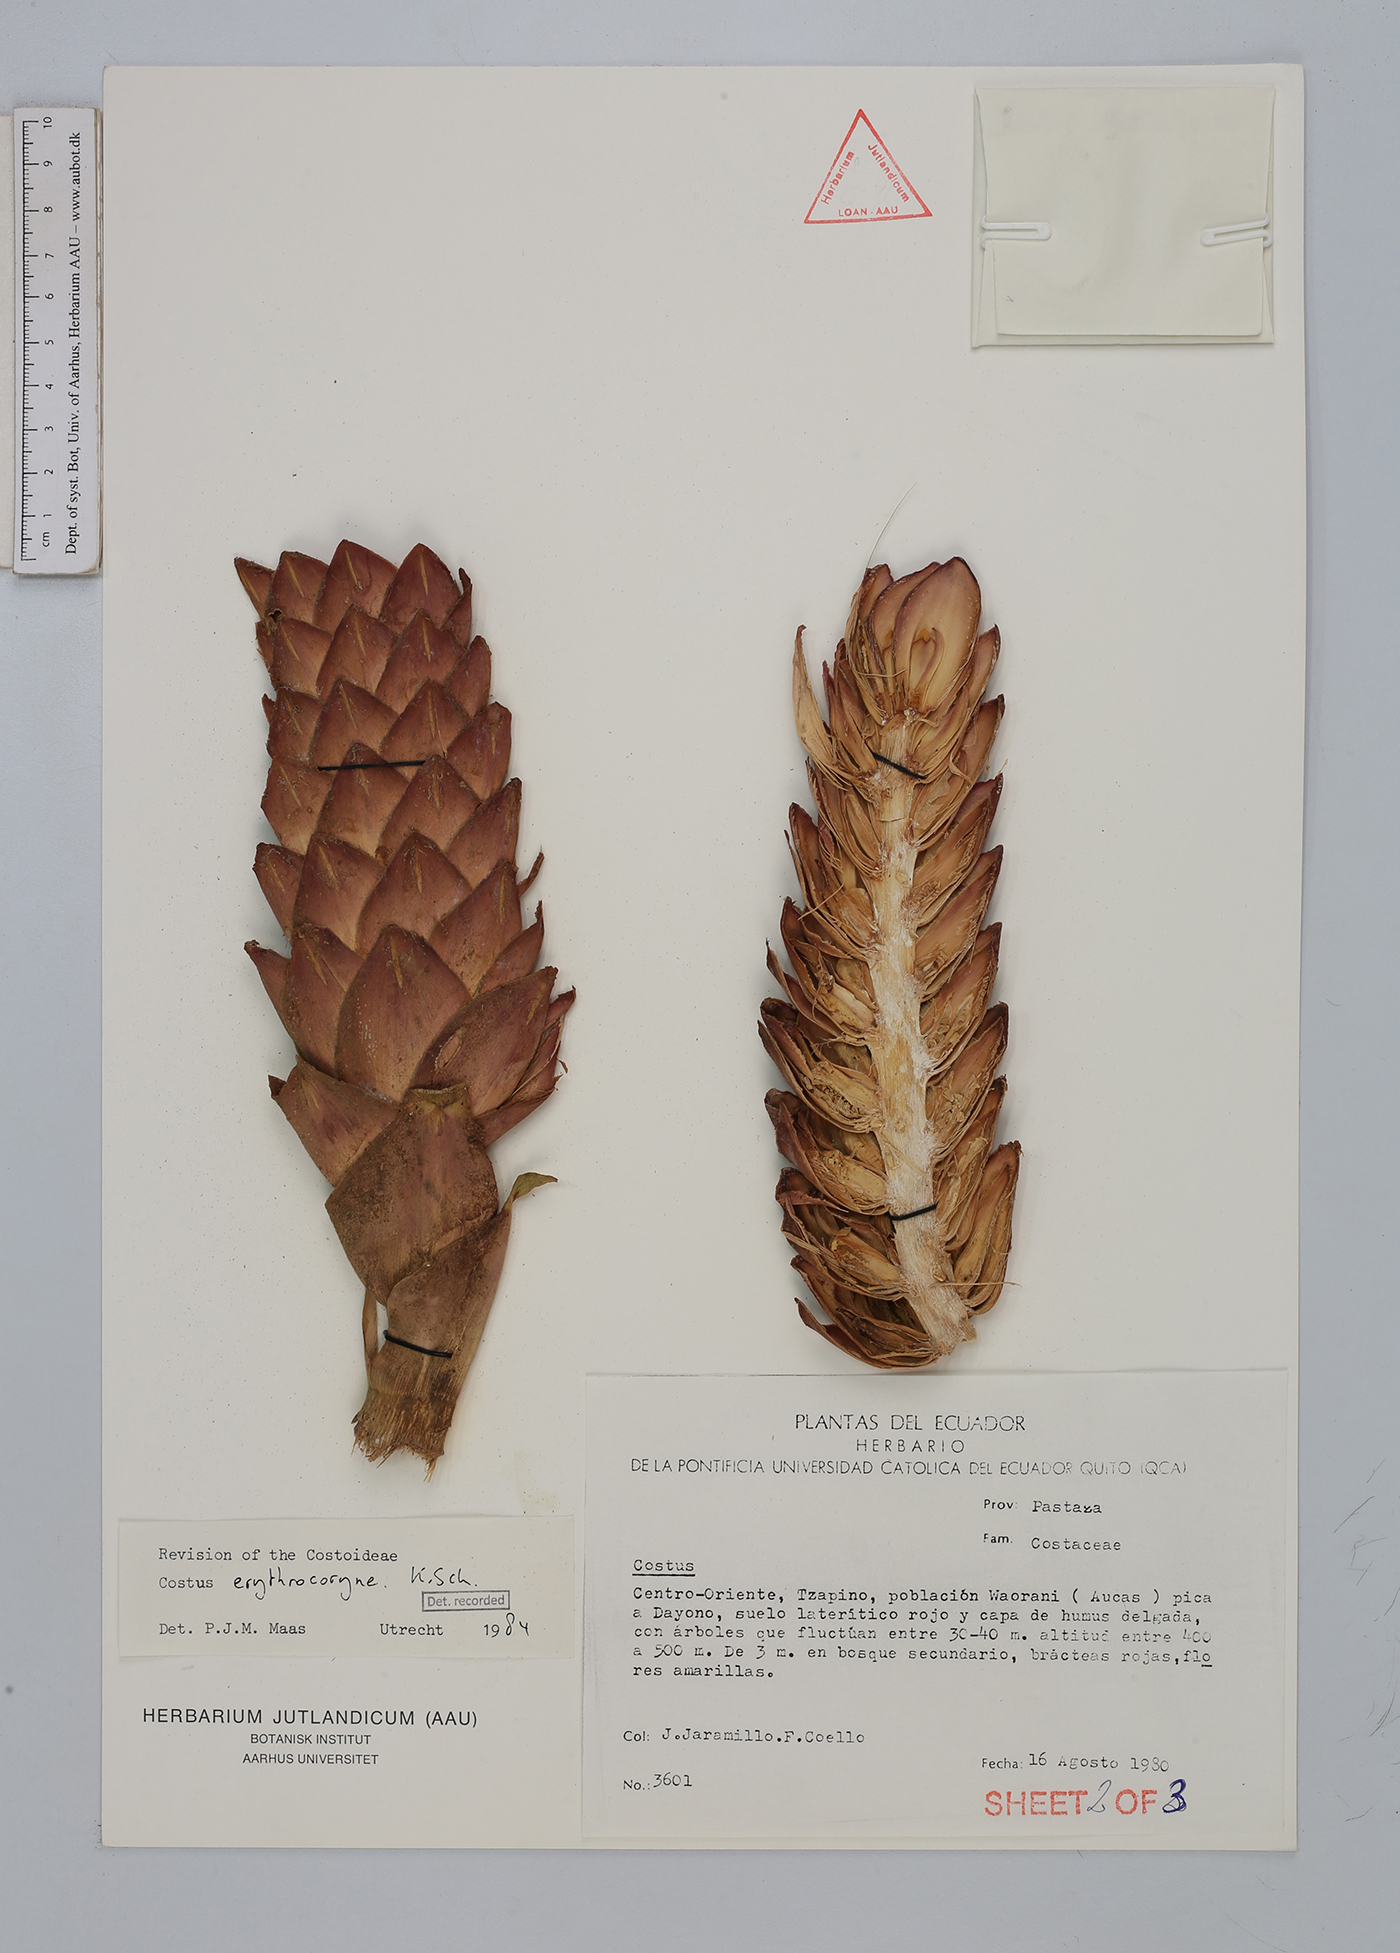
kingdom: Plantae
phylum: Tracheophyta
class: Liliopsida
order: Zingiberales
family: Costaceae
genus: Costus
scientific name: Costus erythrocoryne
